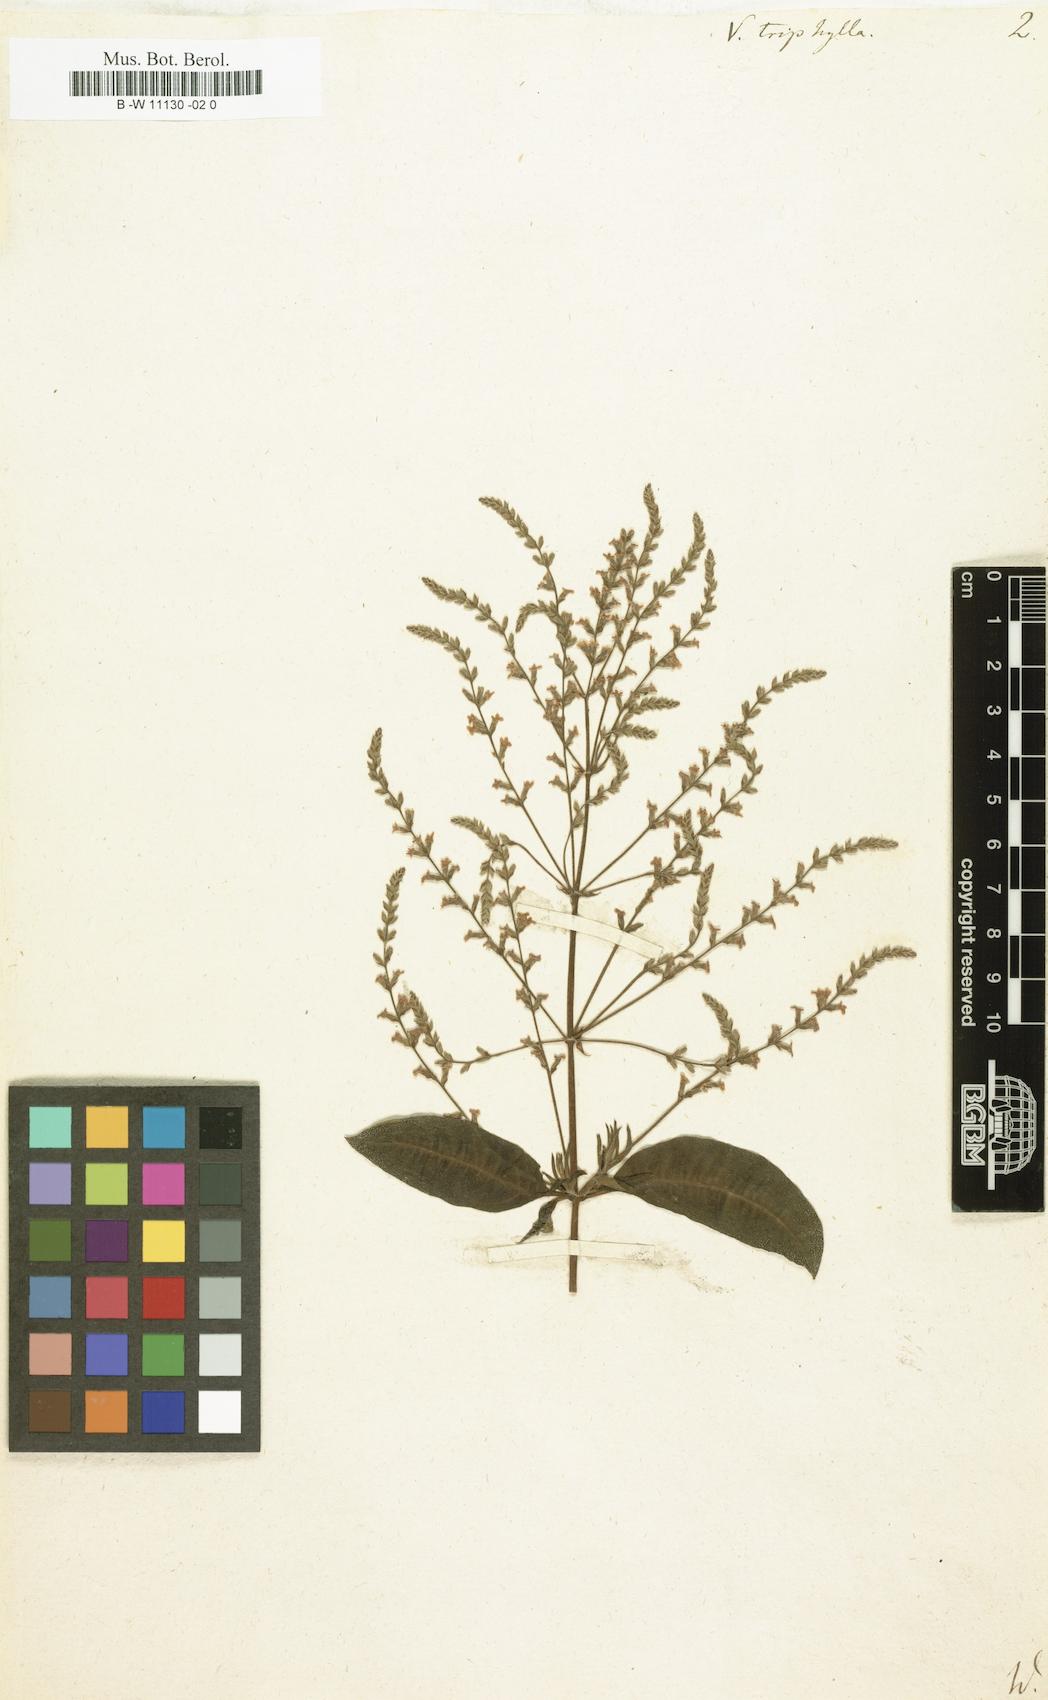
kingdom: Plantae
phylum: Tracheophyta
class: Magnoliopsida
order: Lamiales
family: Verbenaceae
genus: Aloysia
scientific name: Aloysia citrodora
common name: Lemon beebrush
